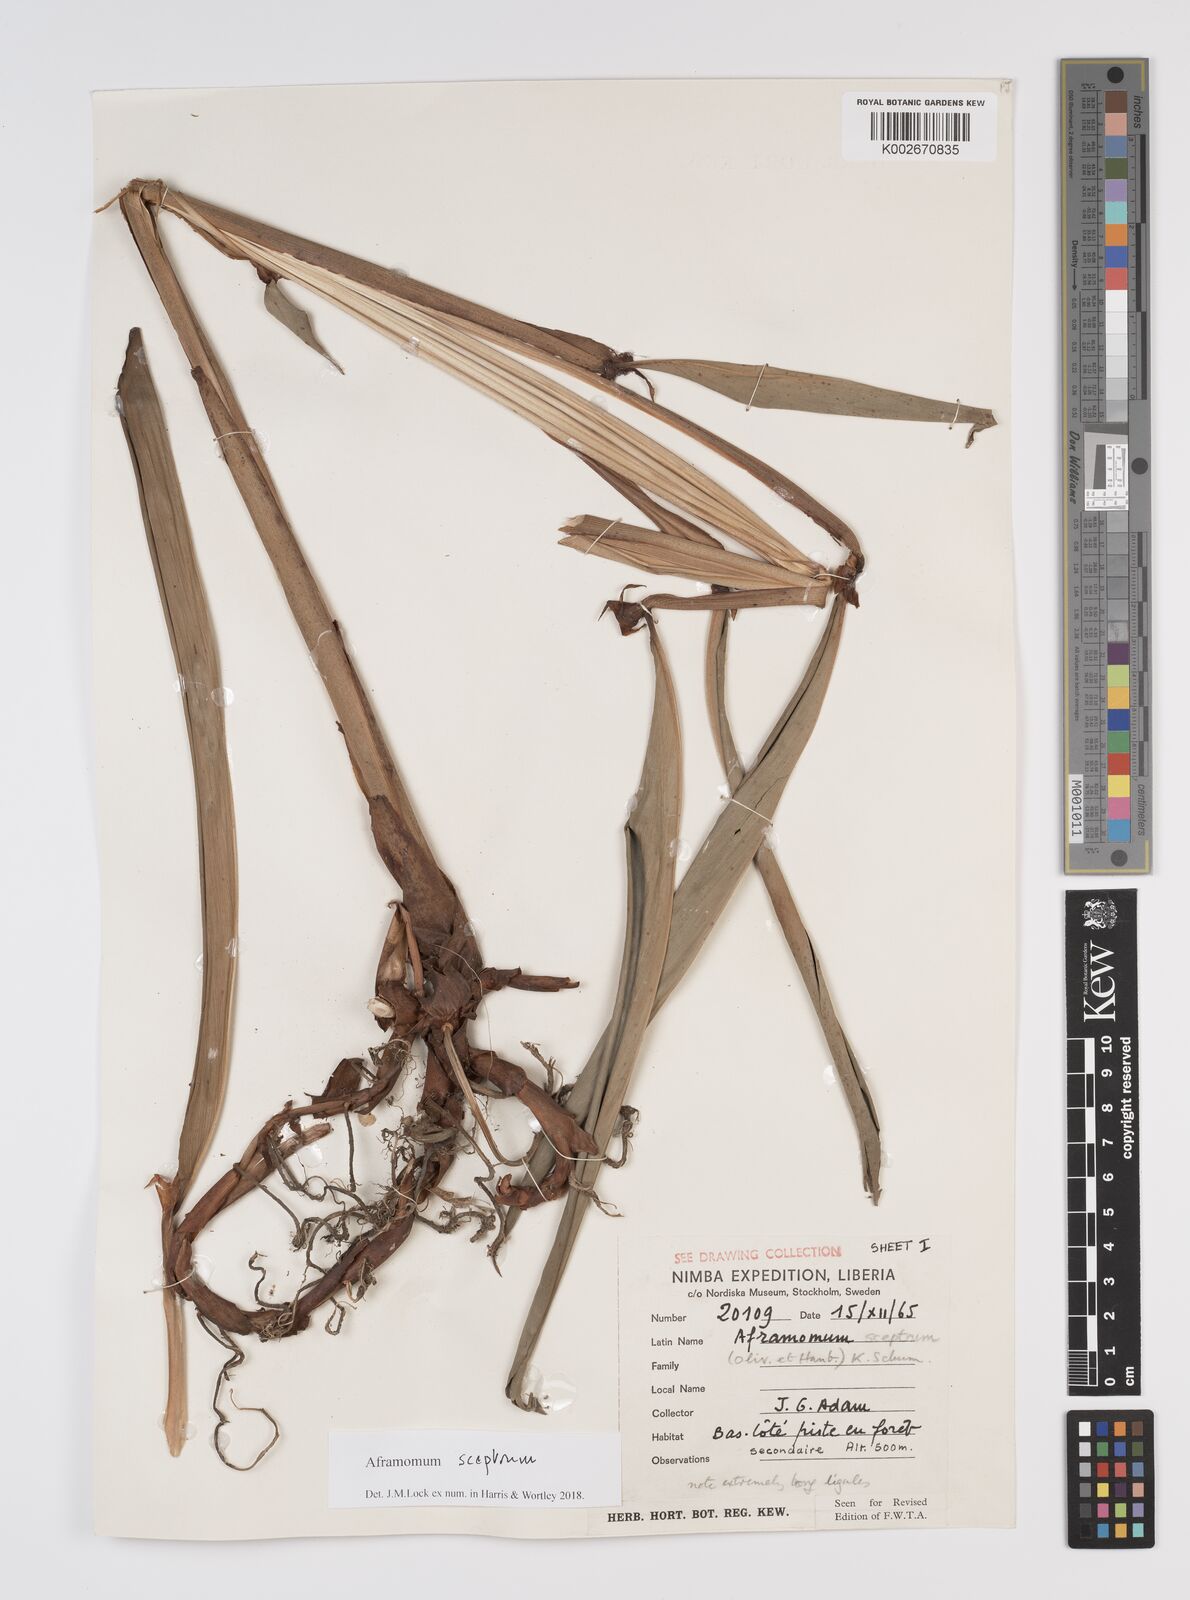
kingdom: Plantae
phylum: Tracheophyta
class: Liliopsida
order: Zingiberales
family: Zingiberaceae
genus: Aframomum
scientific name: Aframomum cereum
